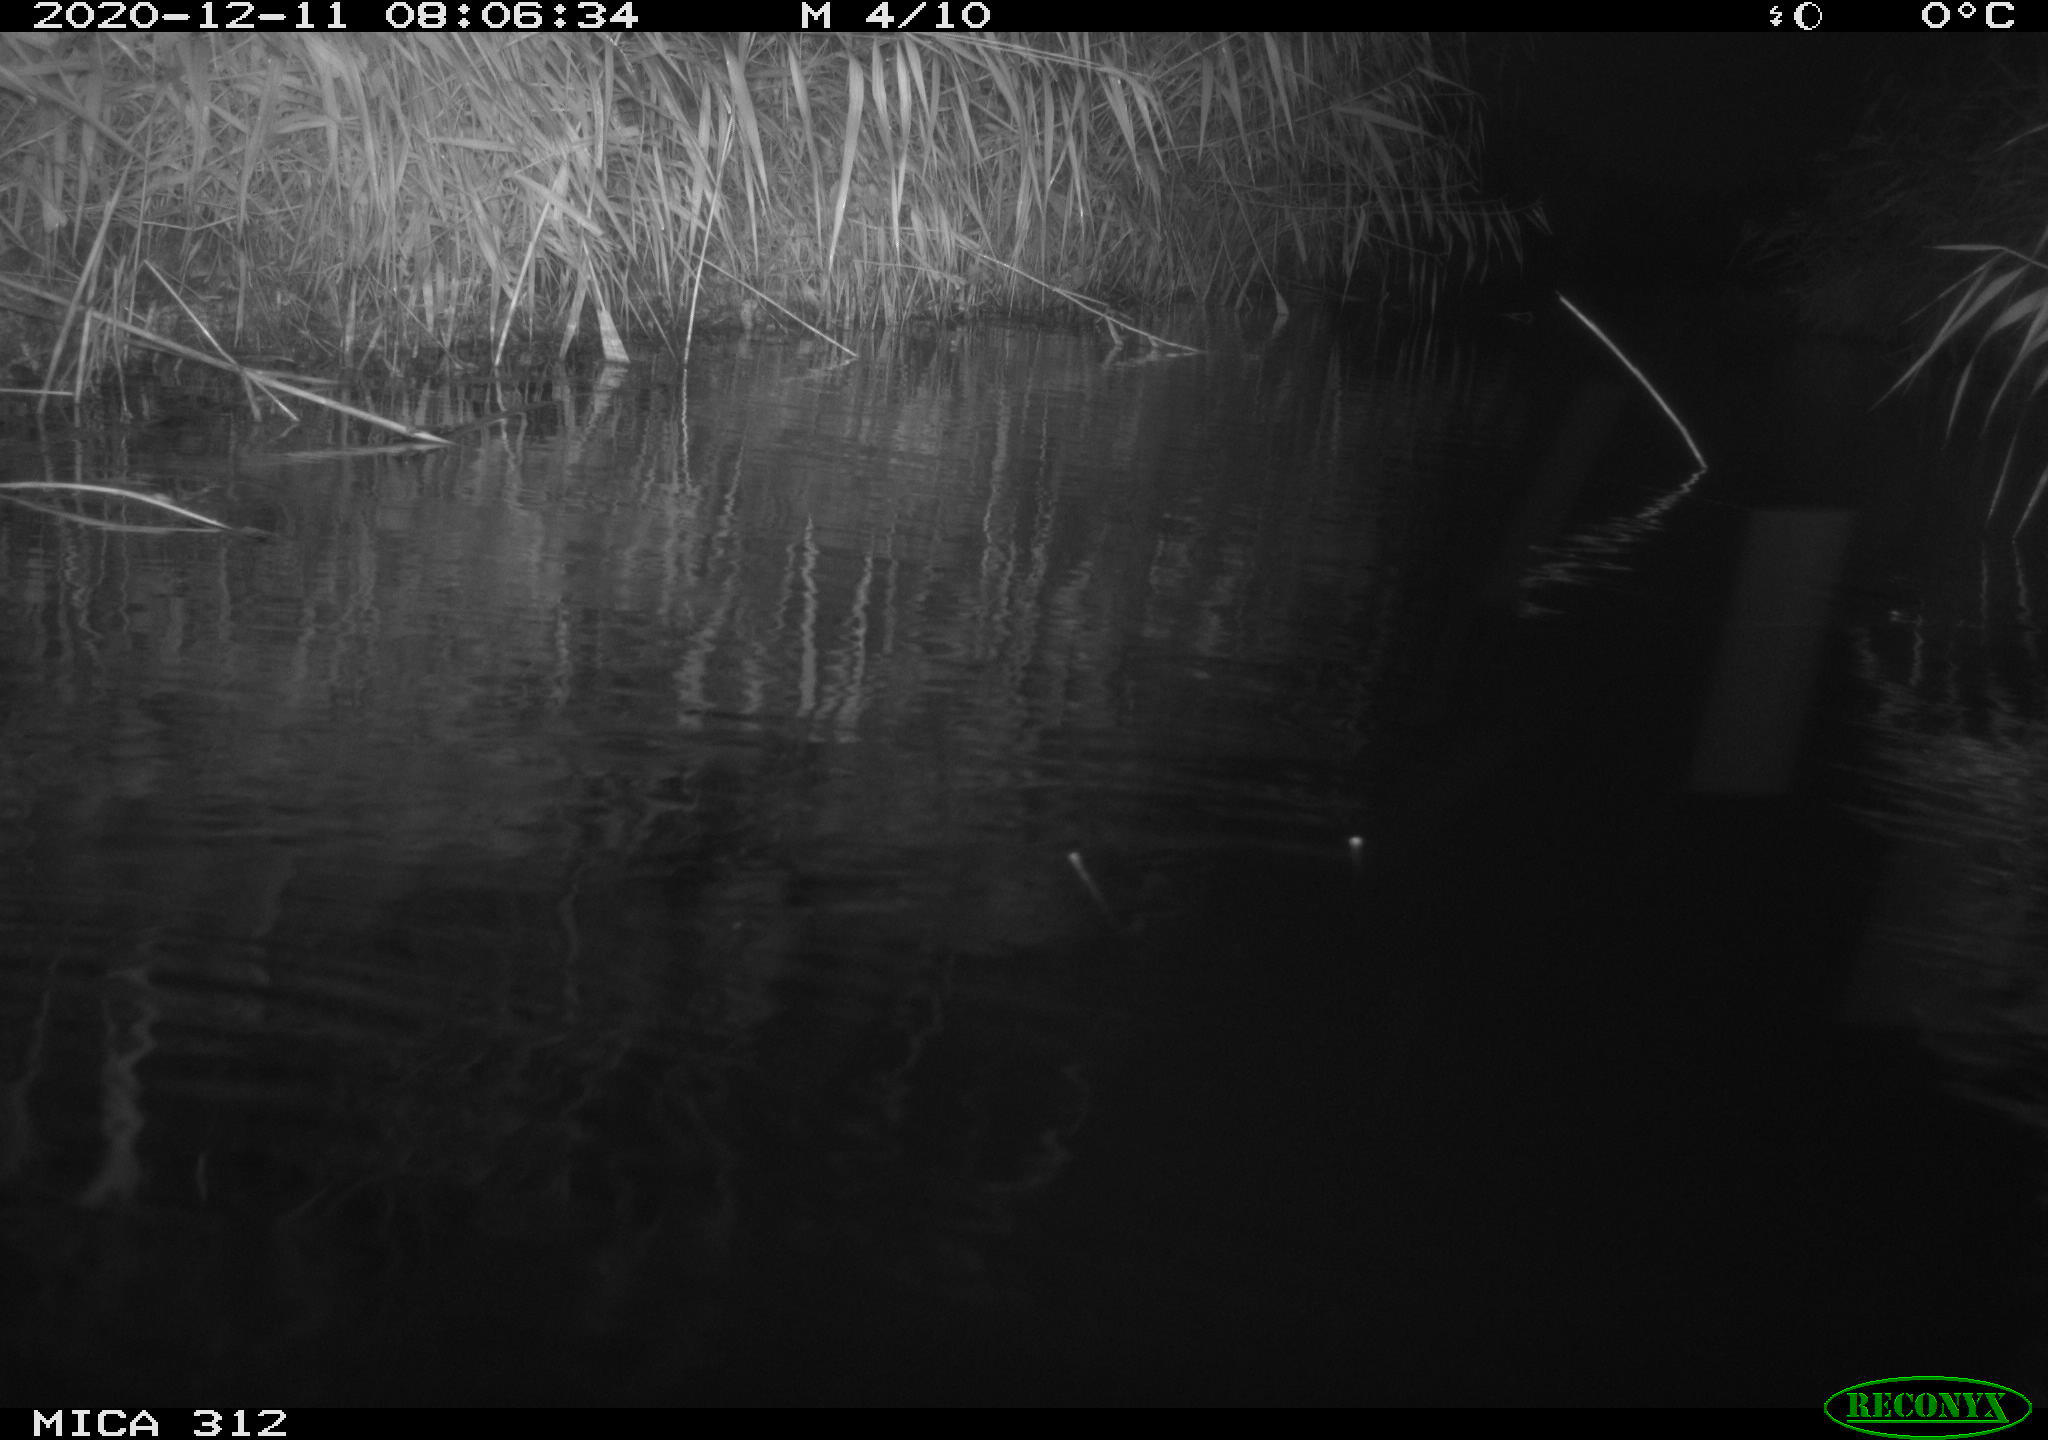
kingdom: Animalia
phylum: Chordata
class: Aves
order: Gruiformes
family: Rallidae
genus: Fulica
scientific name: Fulica atra
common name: Eurasian coot
